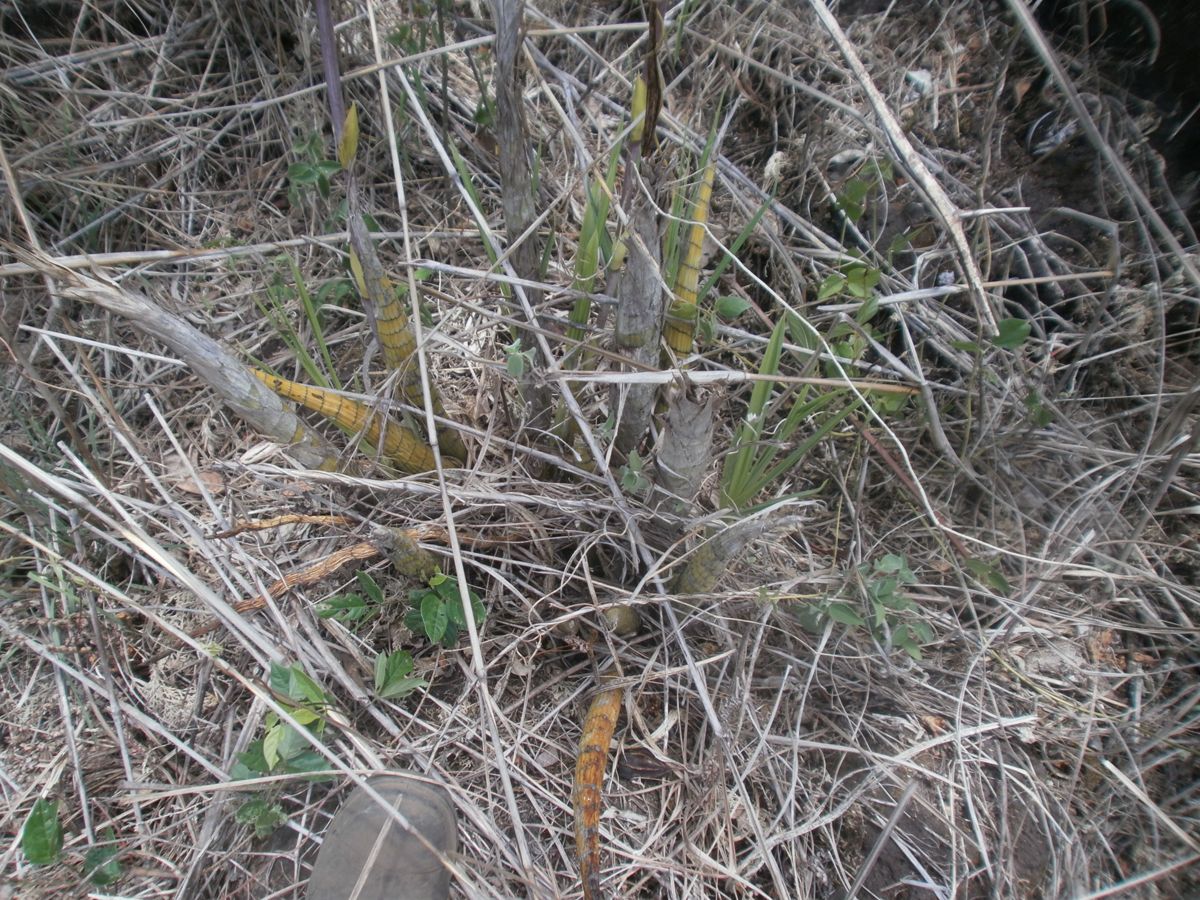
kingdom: Plantae
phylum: Tracheophyta
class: Liliopsida
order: Asparagales
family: Orchidaceae
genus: Cyrtopodium
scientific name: Cyrtopodium macrobulbon
